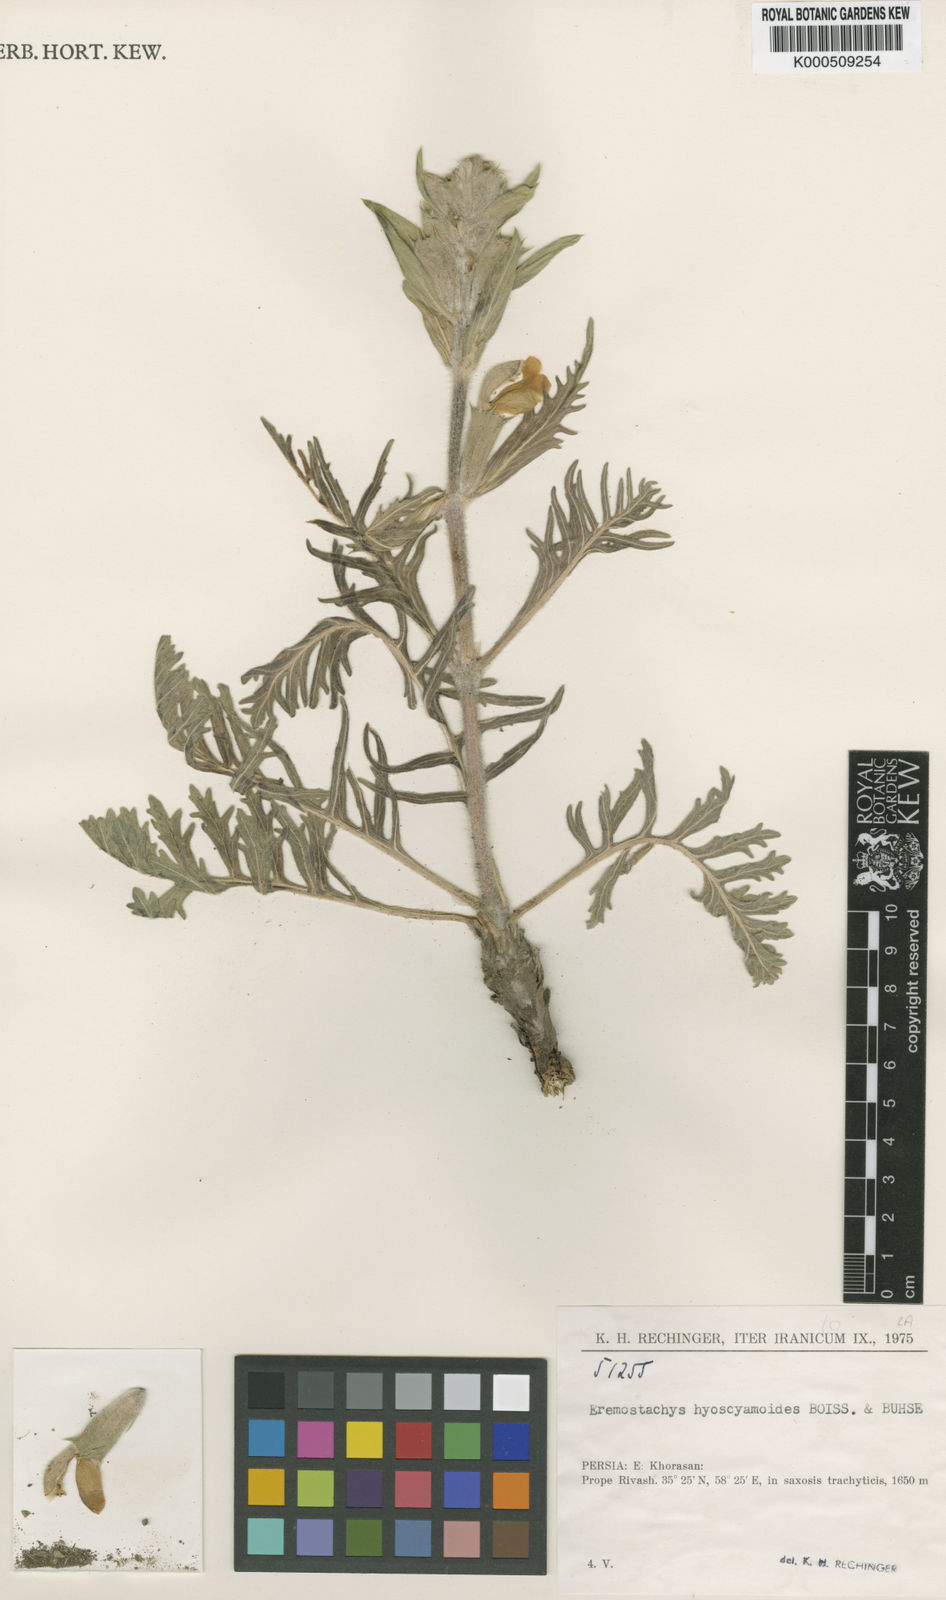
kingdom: Plantae
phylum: Tracheophyta
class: Magnoliopsida
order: Lamiales
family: Lamiaceae
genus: Phlomoides
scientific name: Phlomoides hyoscyamoides
